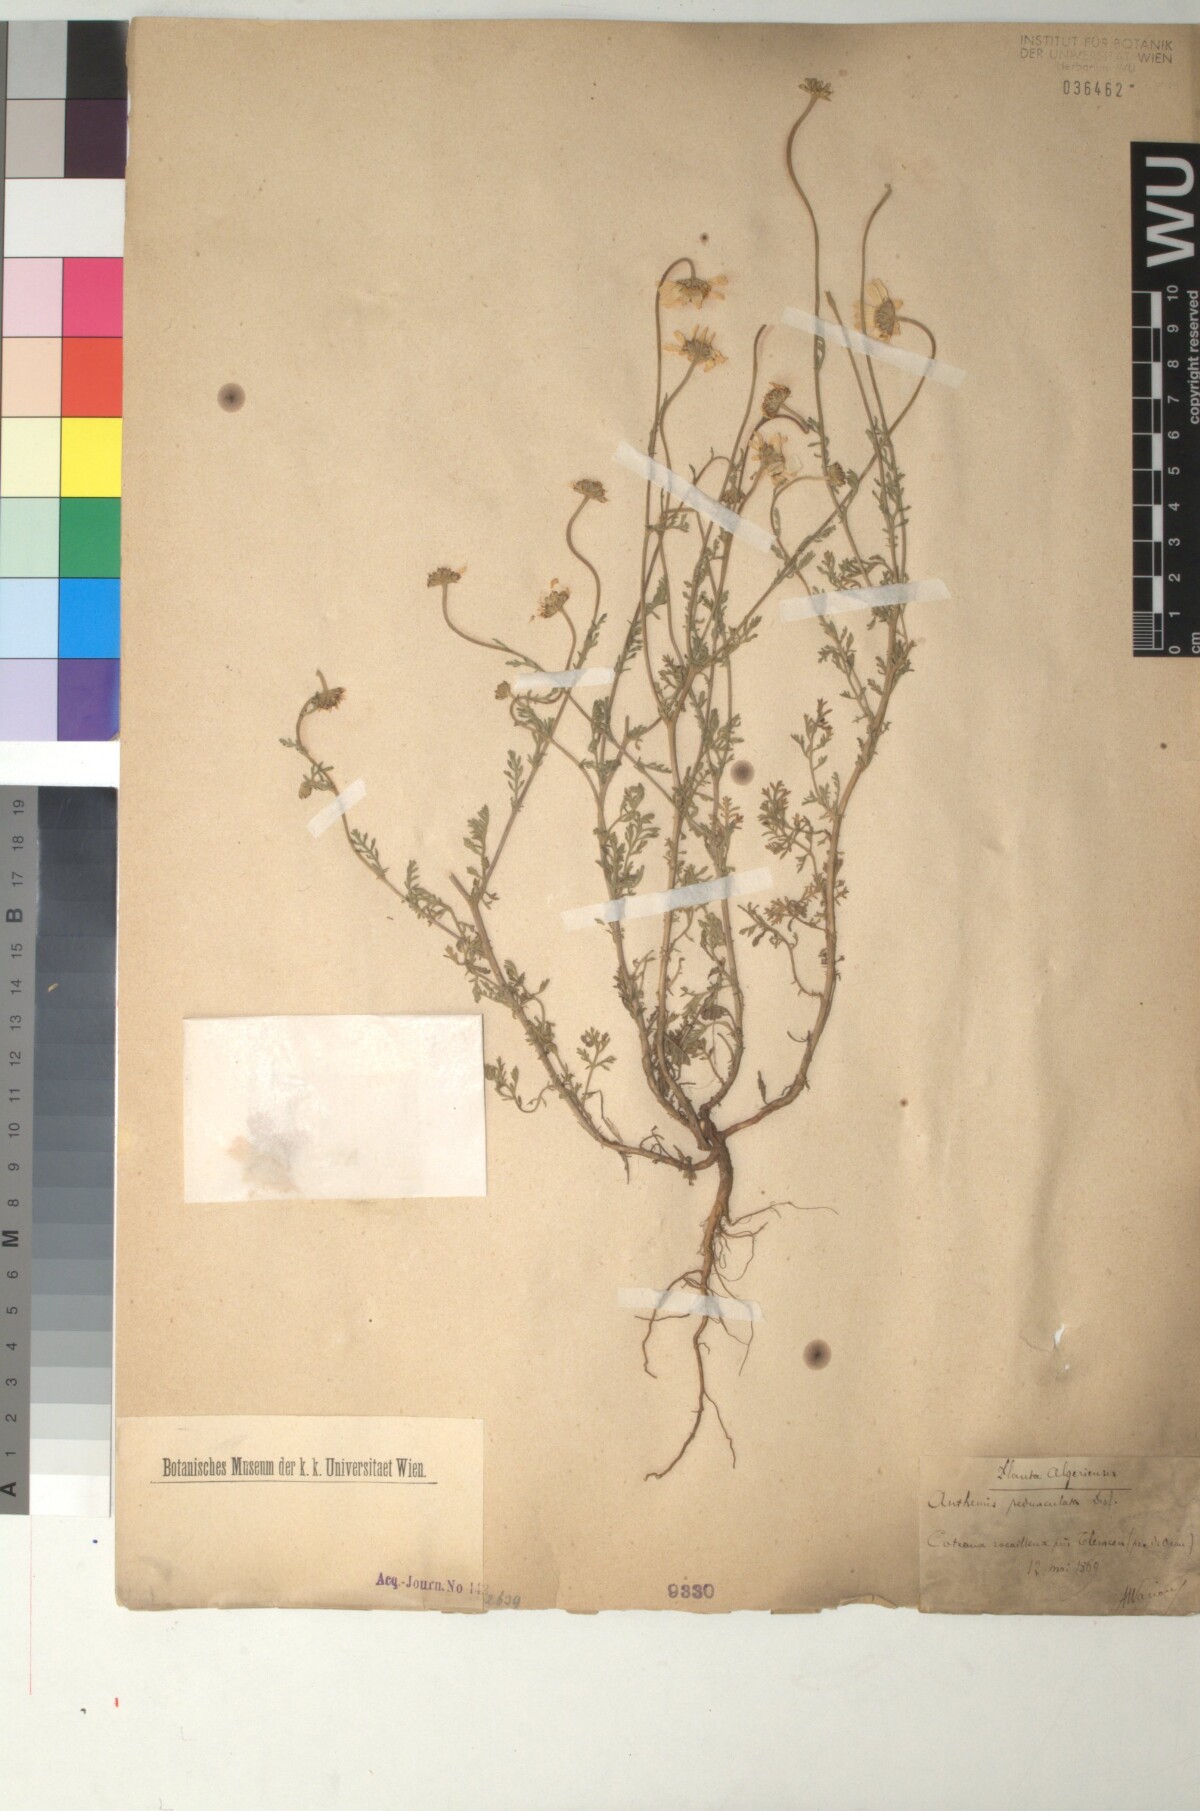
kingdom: Plantae
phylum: Tracheophyta
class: Magnoliopsida
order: Asterales
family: Asteraceae
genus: Anthemis
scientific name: Anthemis pedunculata
